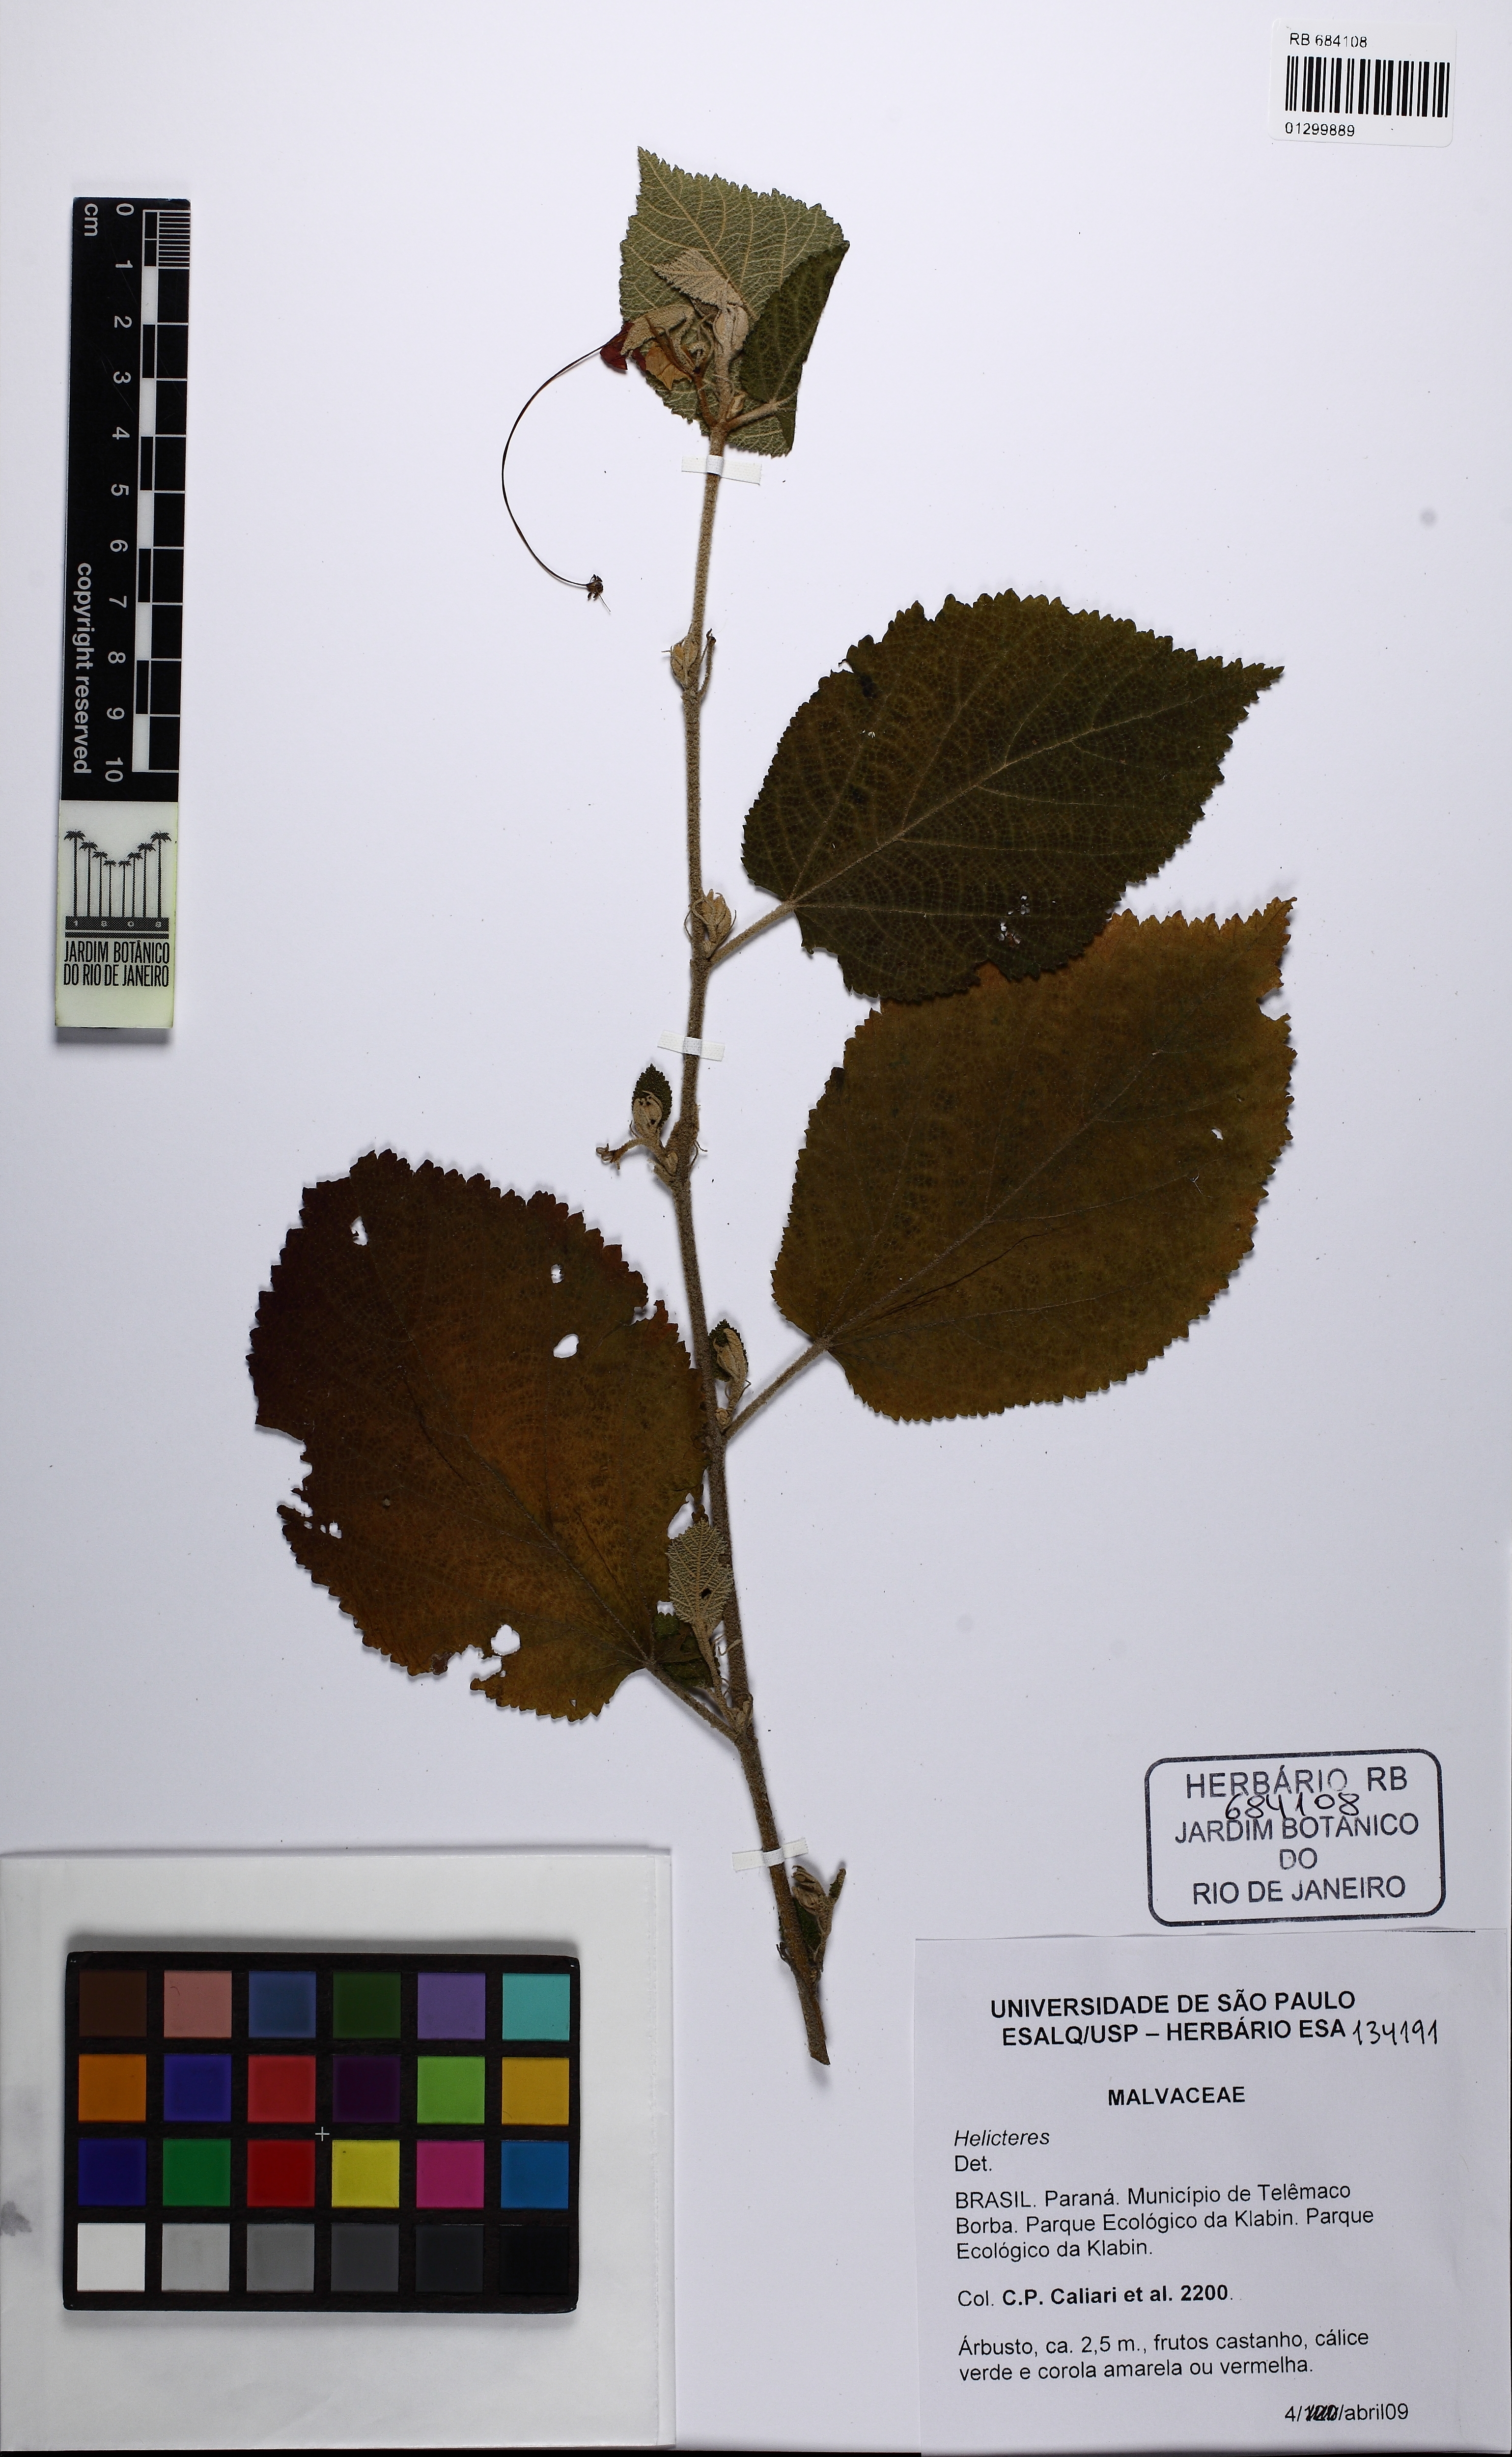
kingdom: Plantae
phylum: Tracheophyta
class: Magnoliopsida
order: Malvales
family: Malvaceae
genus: Helicteres
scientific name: Helicteres
